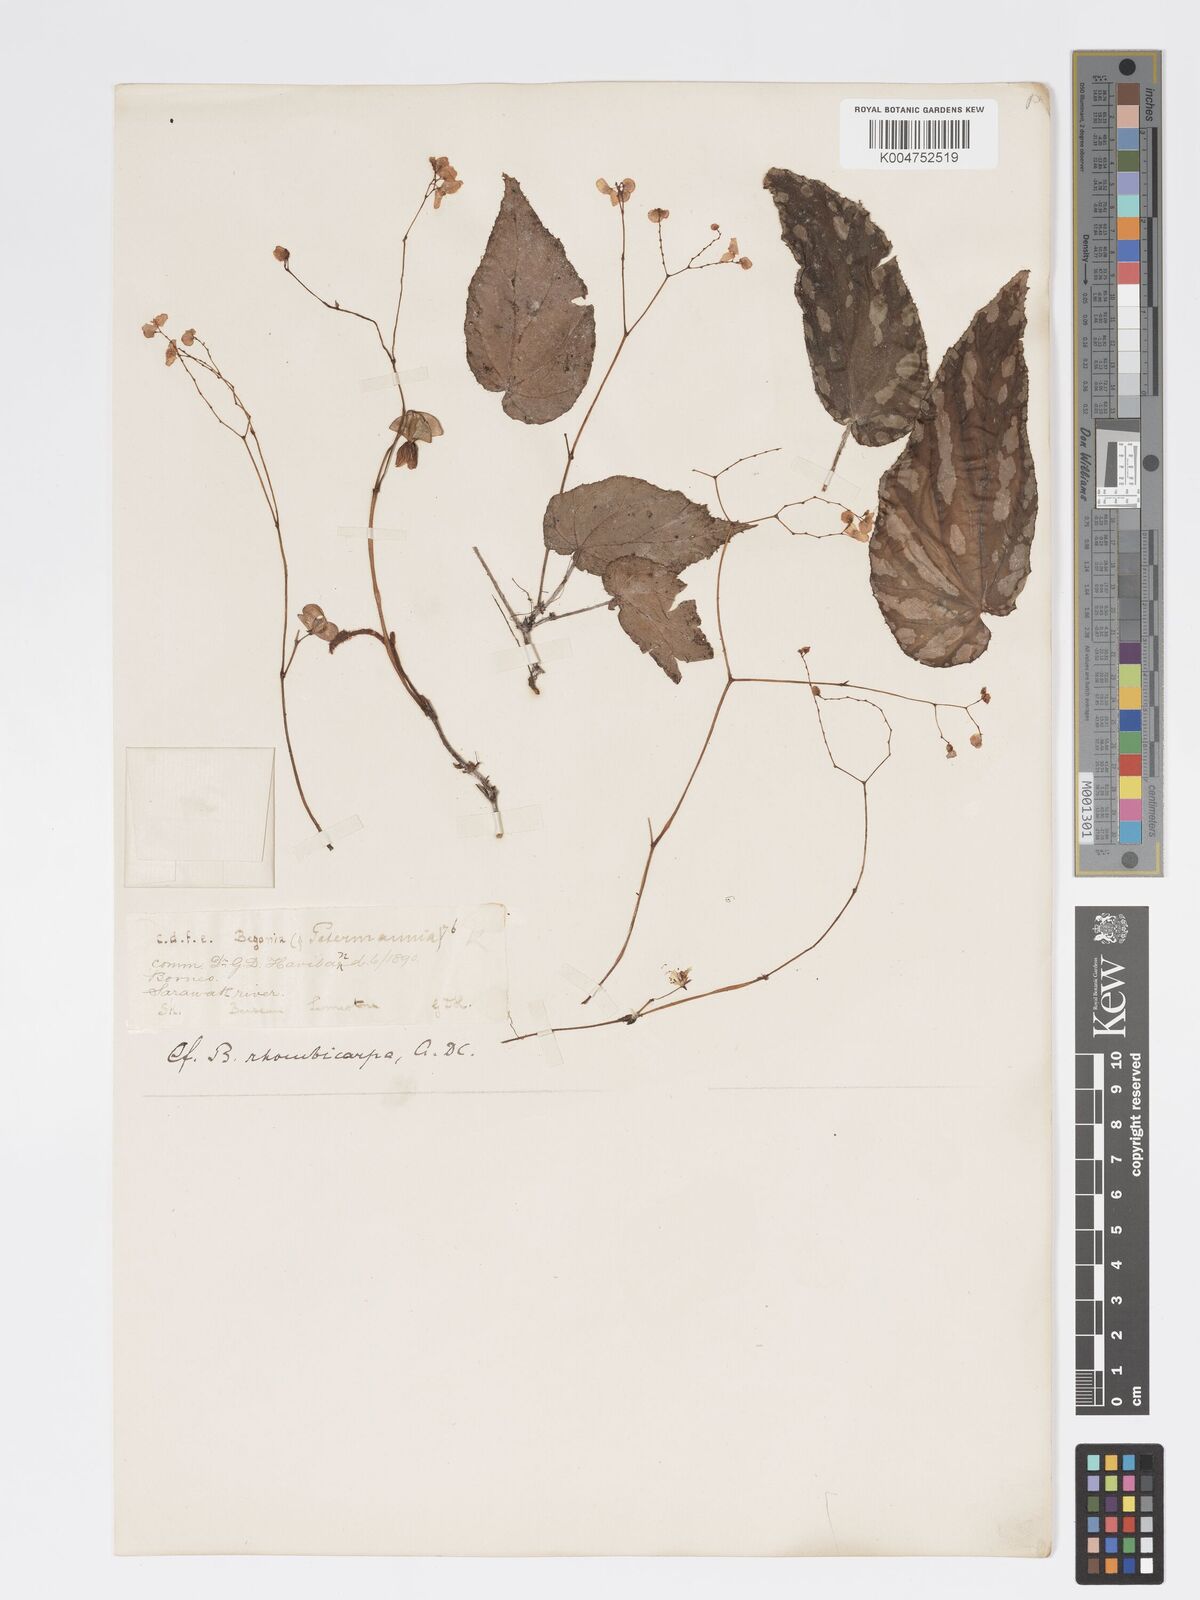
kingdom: Plantae
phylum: Tracheophyta
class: Magnoliopsida
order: Cucurbitales
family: Begoniaceae
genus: Begonia
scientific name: Begonia promethea
